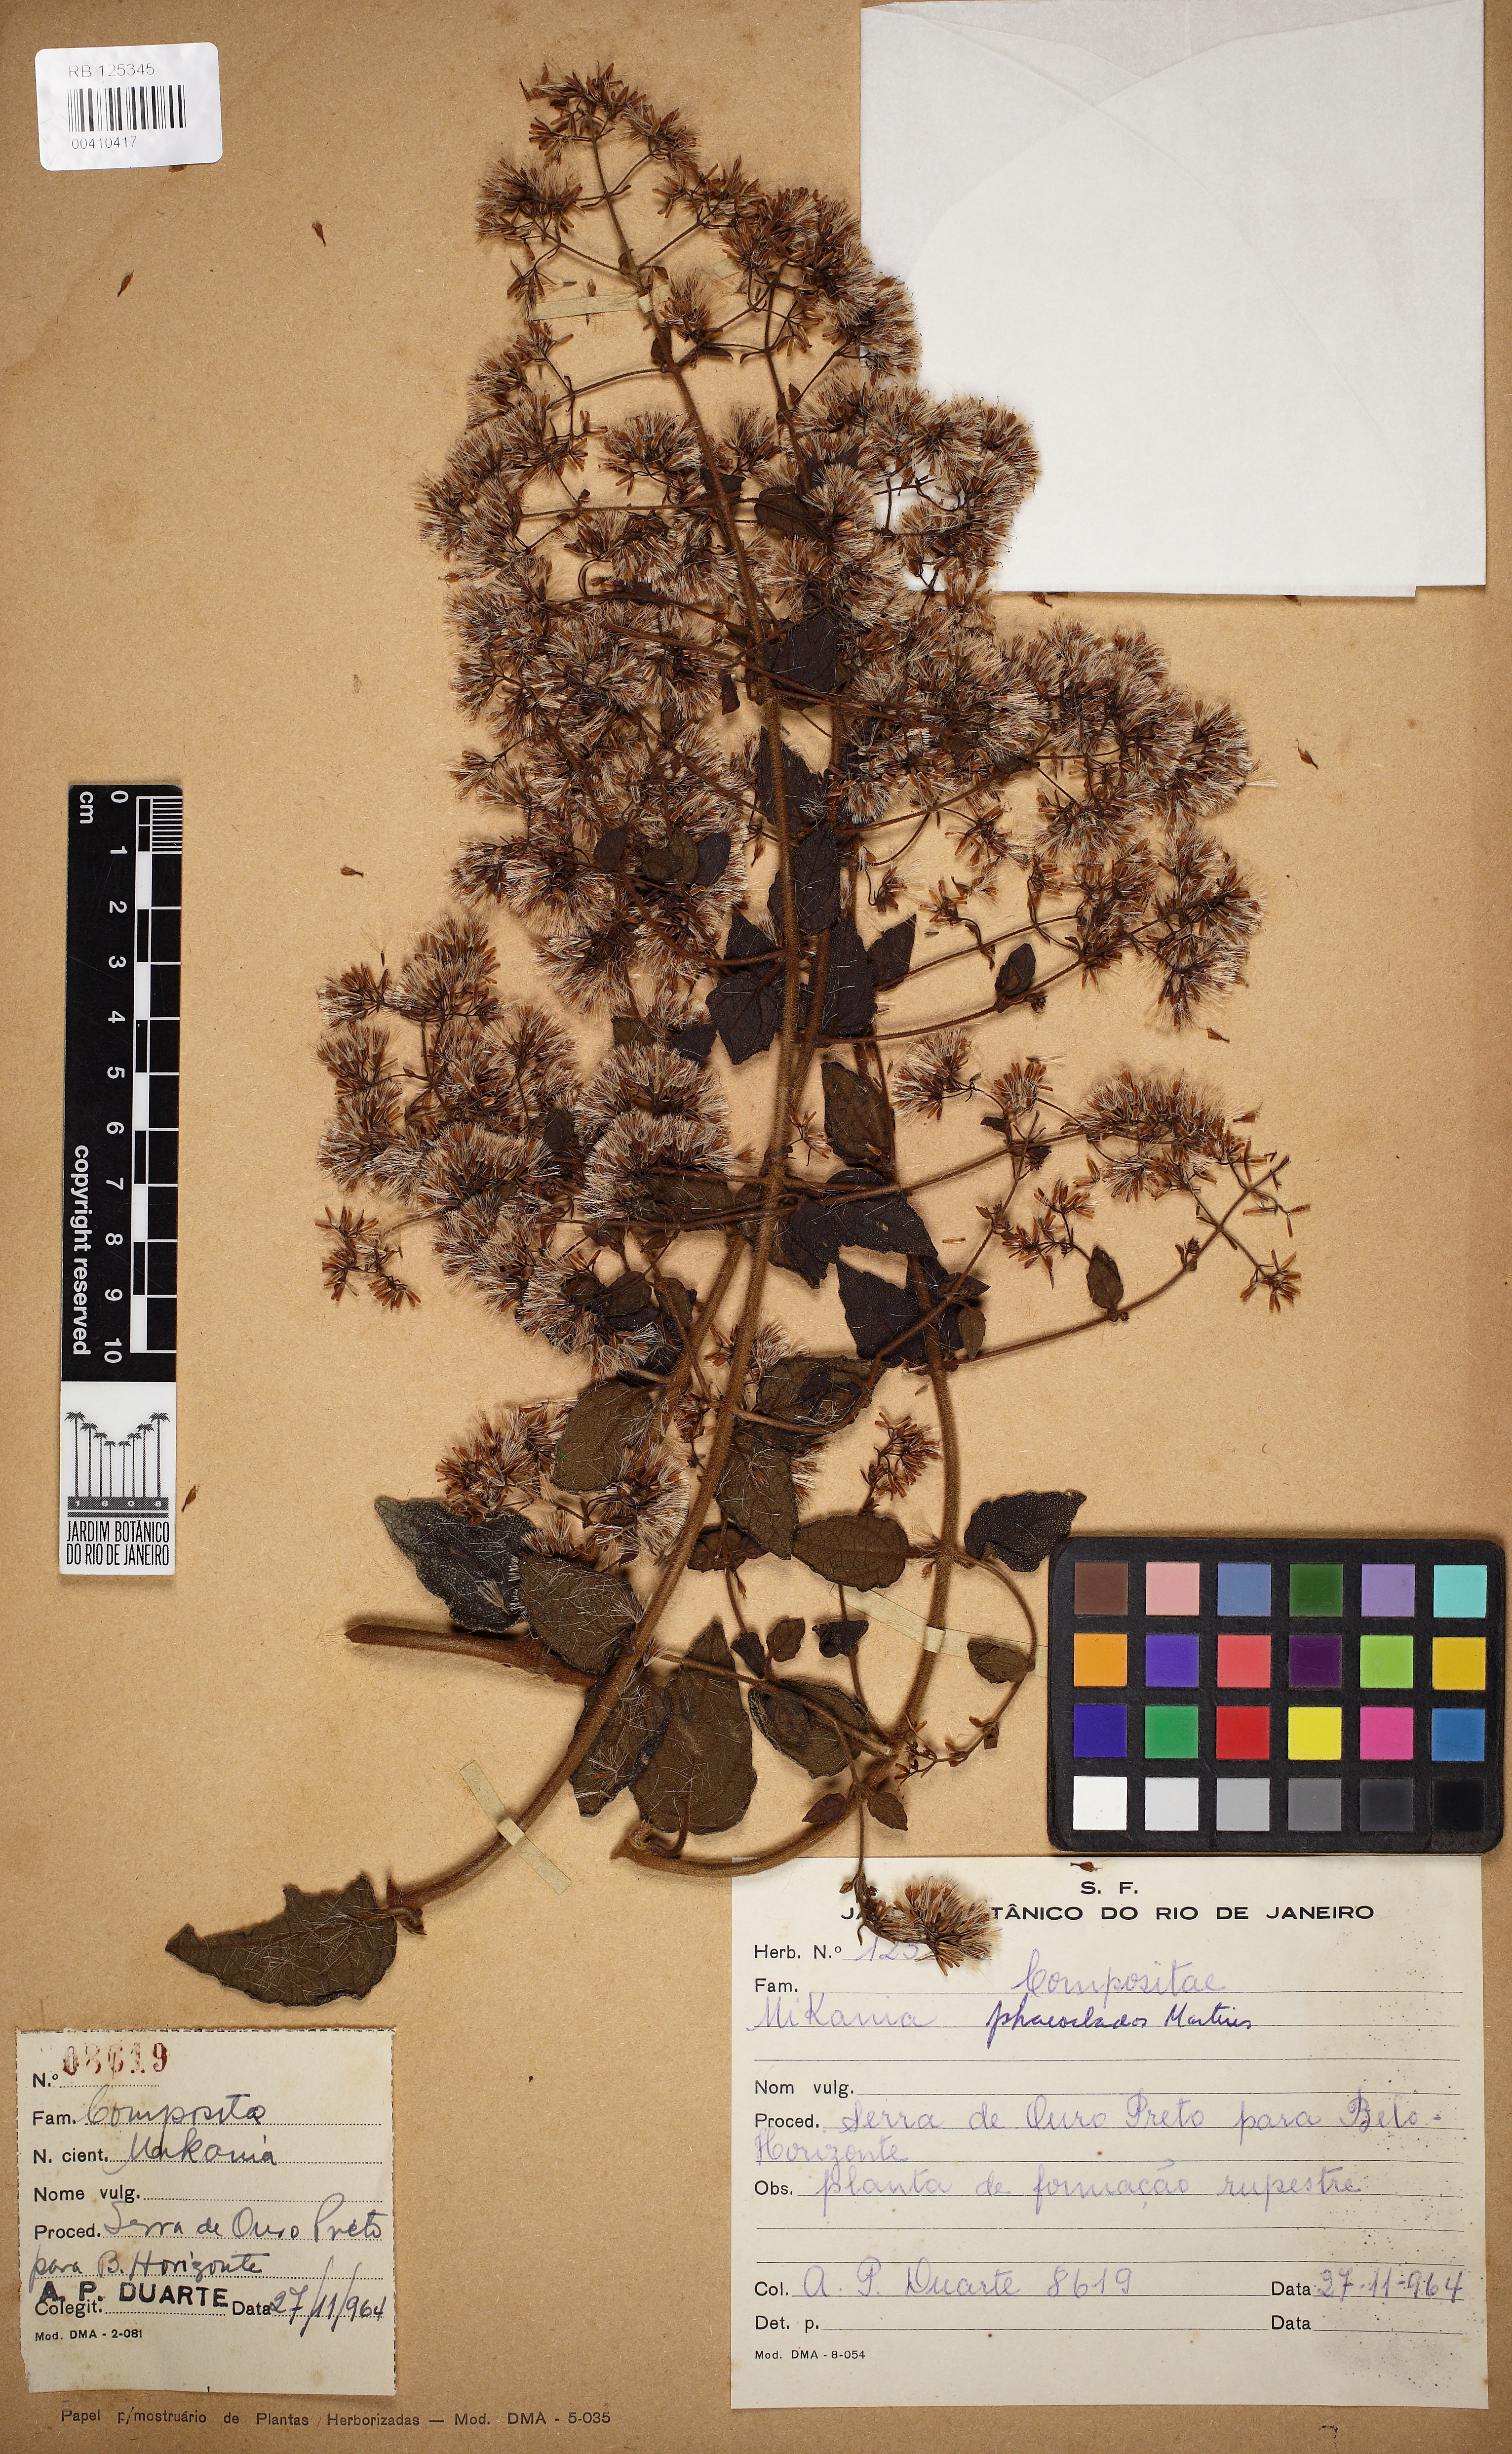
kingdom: Plantae
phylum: Tracheophyta
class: Magnoliopsida
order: Asterales
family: Asteraceae
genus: Mikania
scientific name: Mikania phaeoclados
